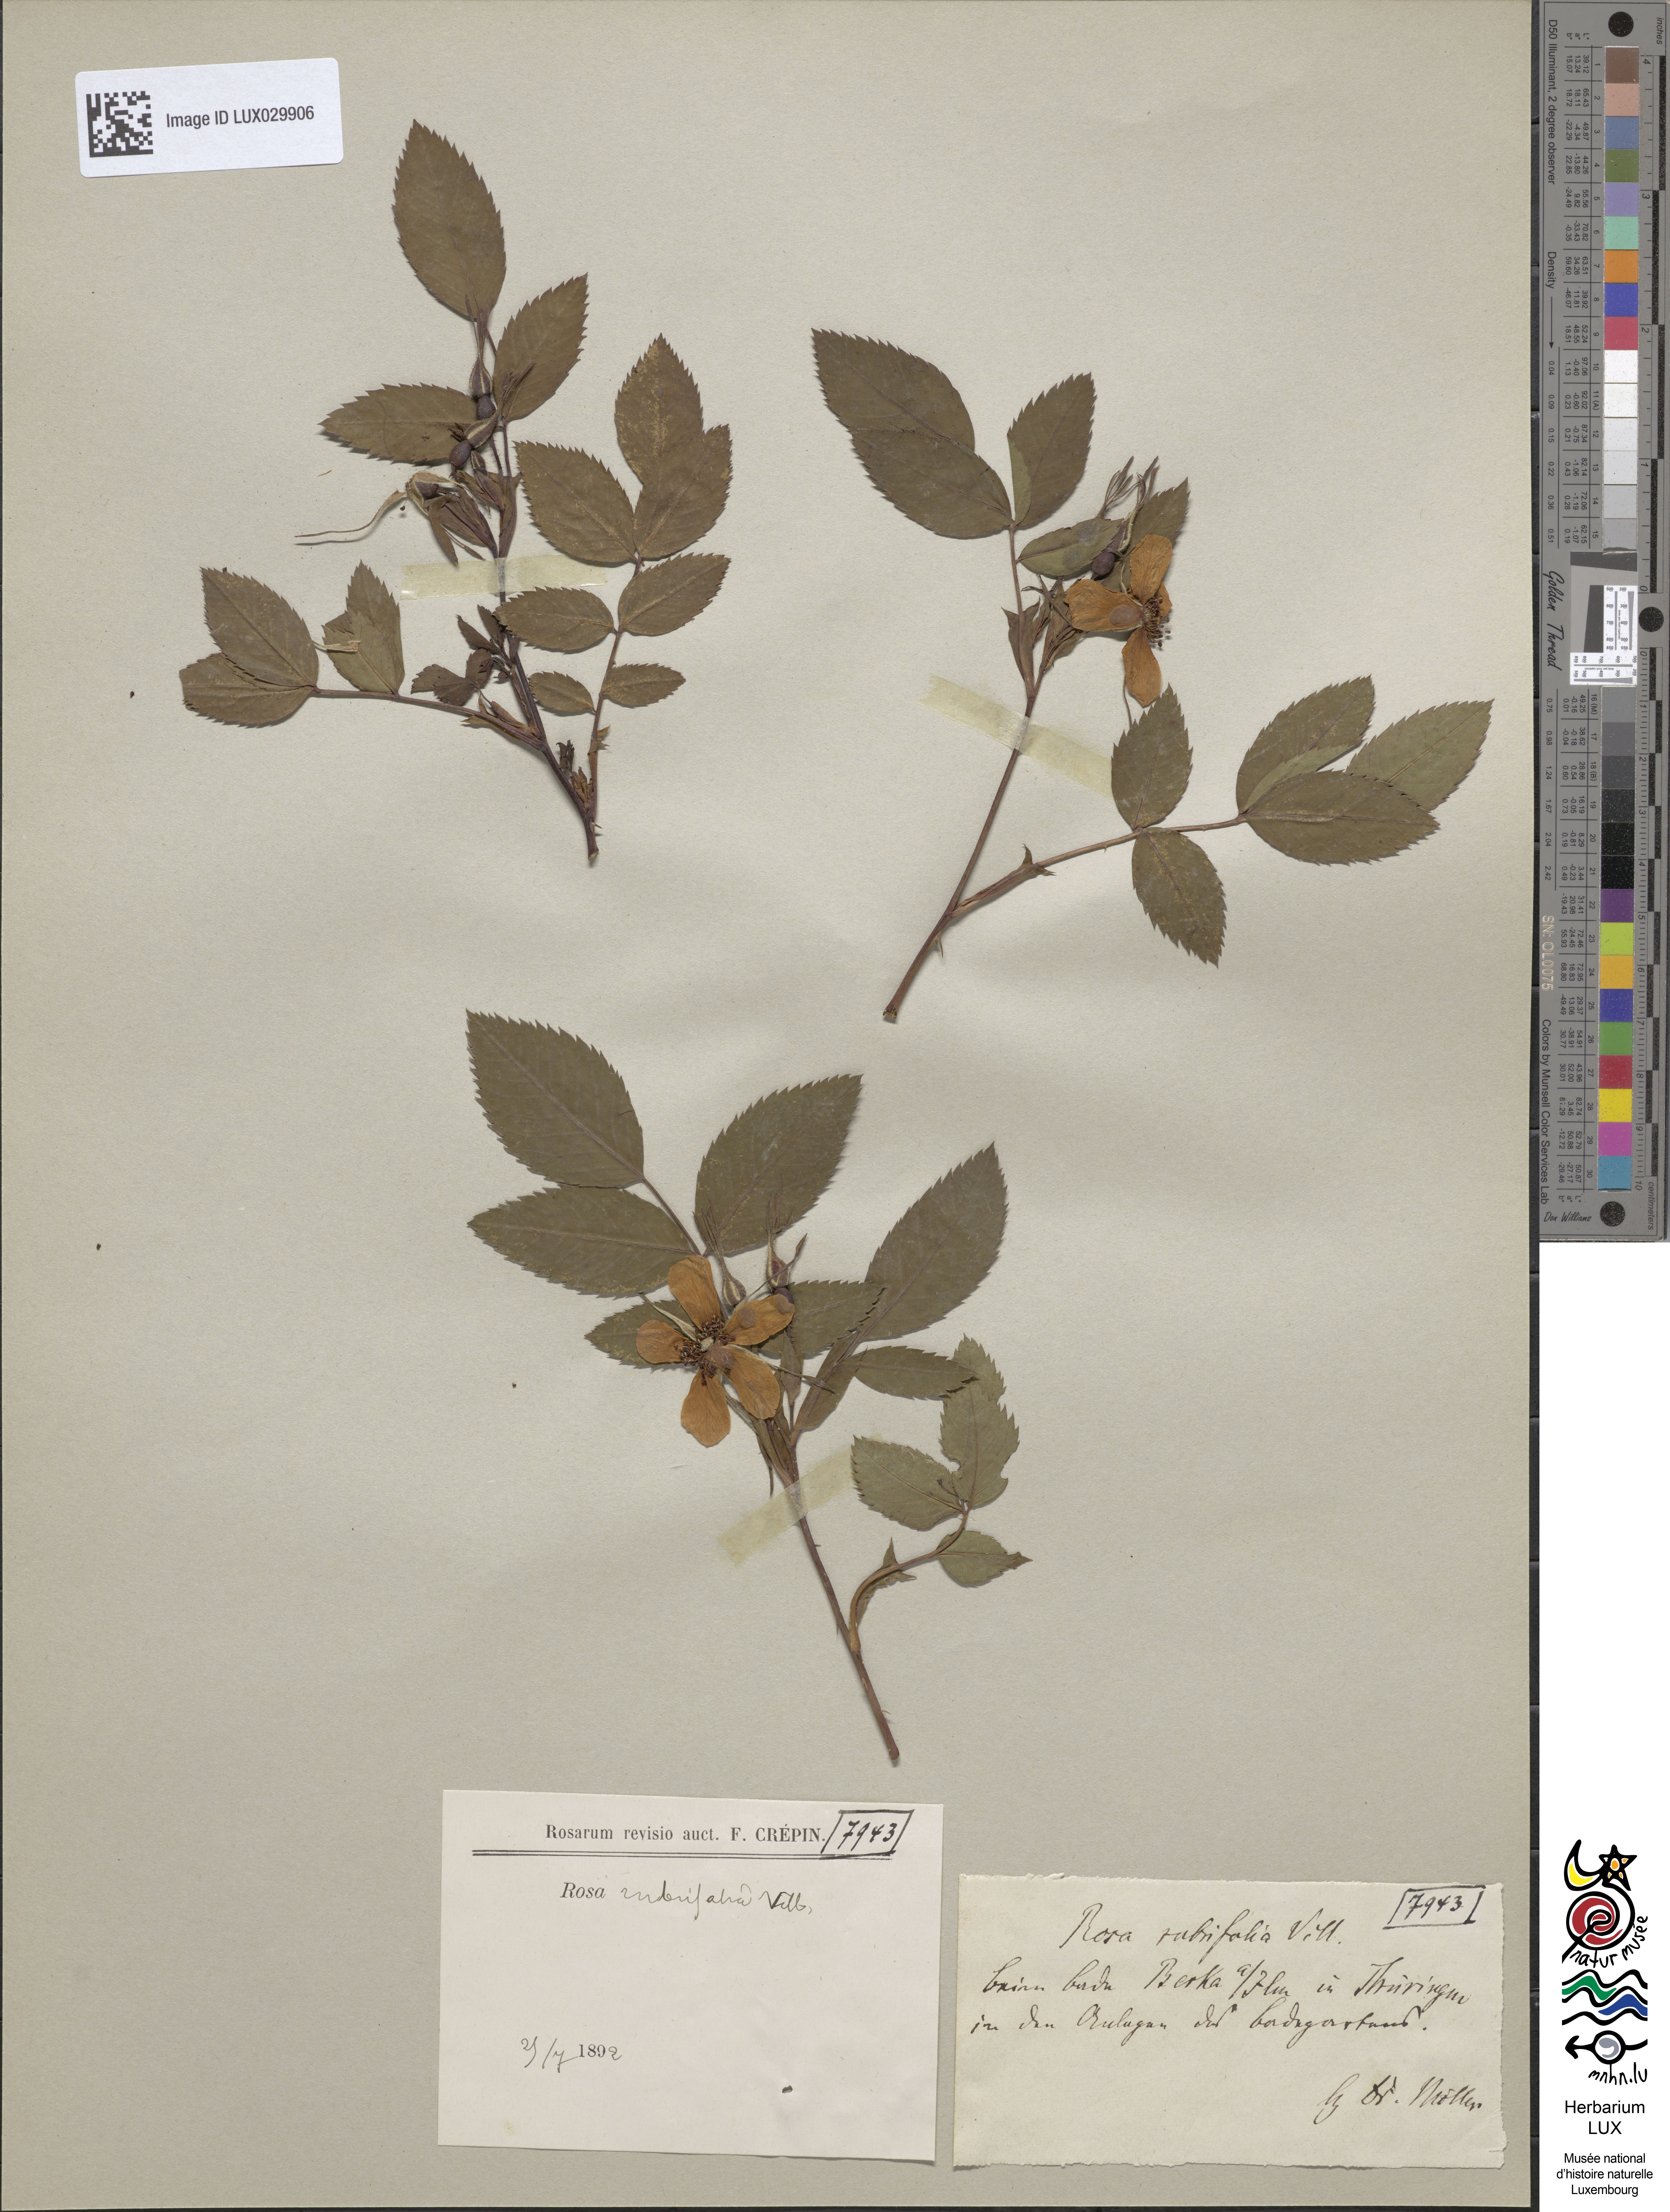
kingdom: Plantae
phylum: Tracheophyta
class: Magnoliopsida
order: Rosales
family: Rosaceae
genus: Rosa
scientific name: Rosa glauca
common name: Redleaf rose
